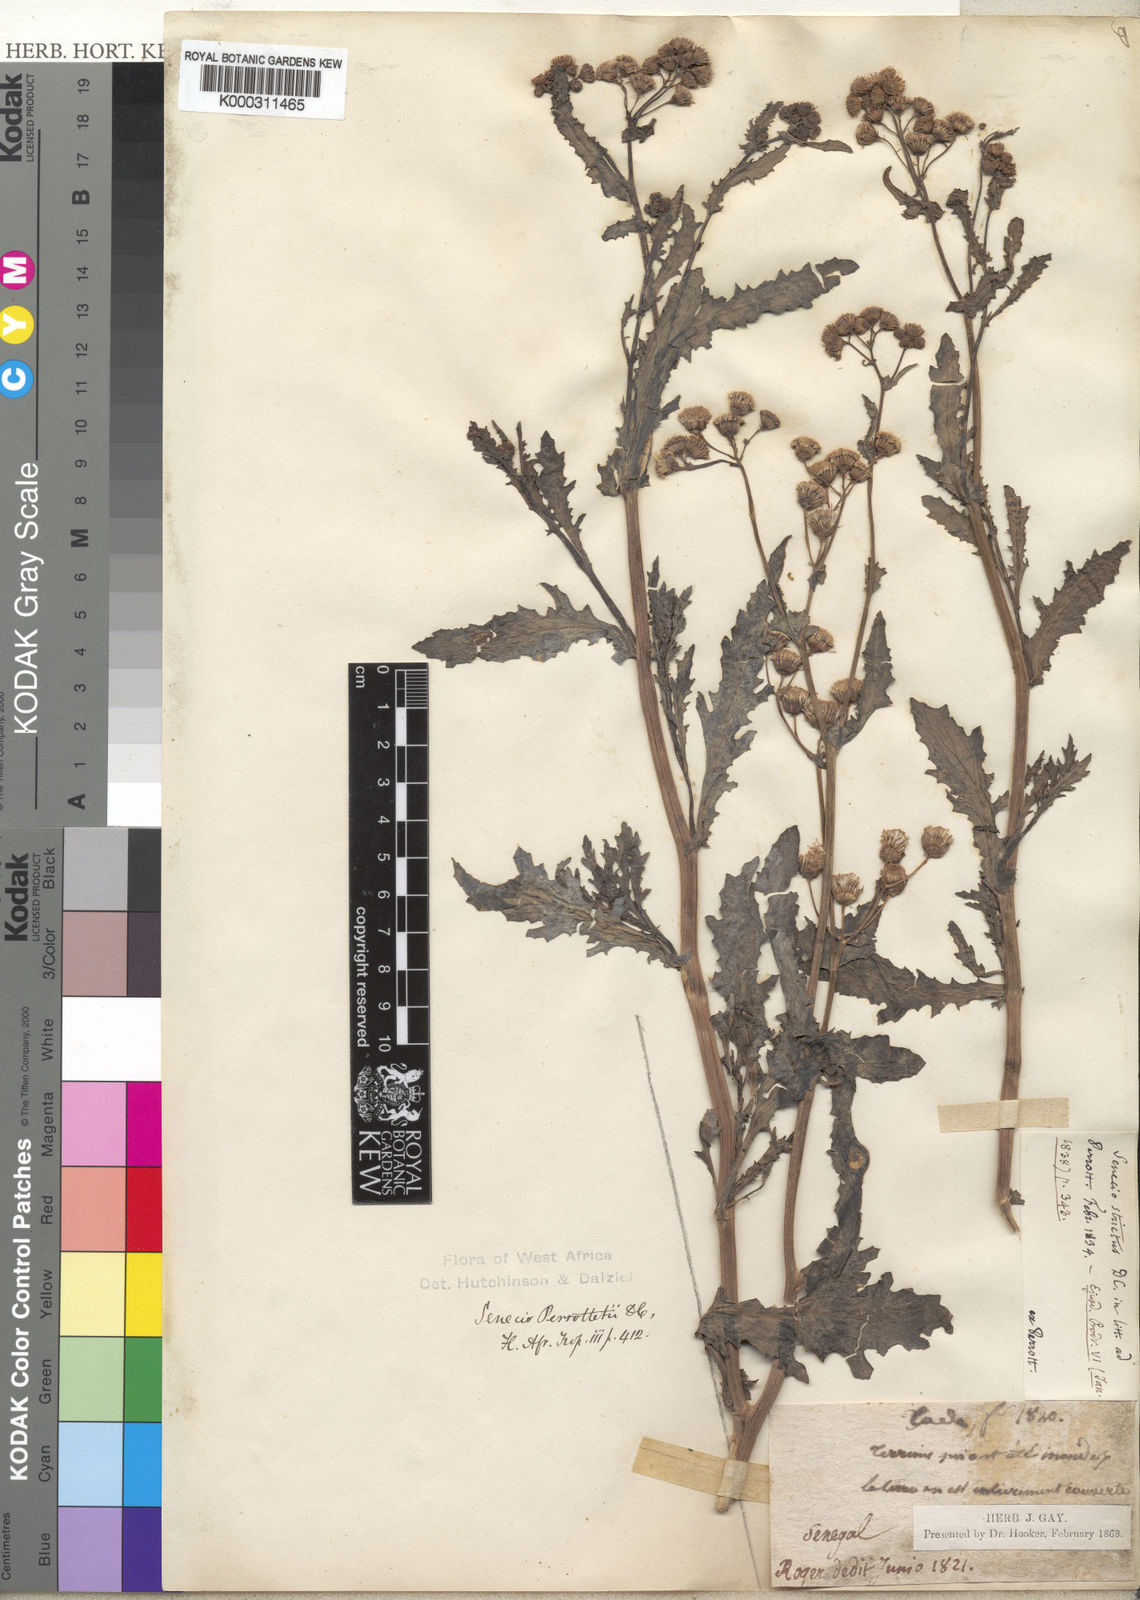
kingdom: Plantae
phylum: Tracheophyta
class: Magnoliopsida
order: Asterales
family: Asteraceae
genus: Senecio
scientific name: Senecio perrottetii
